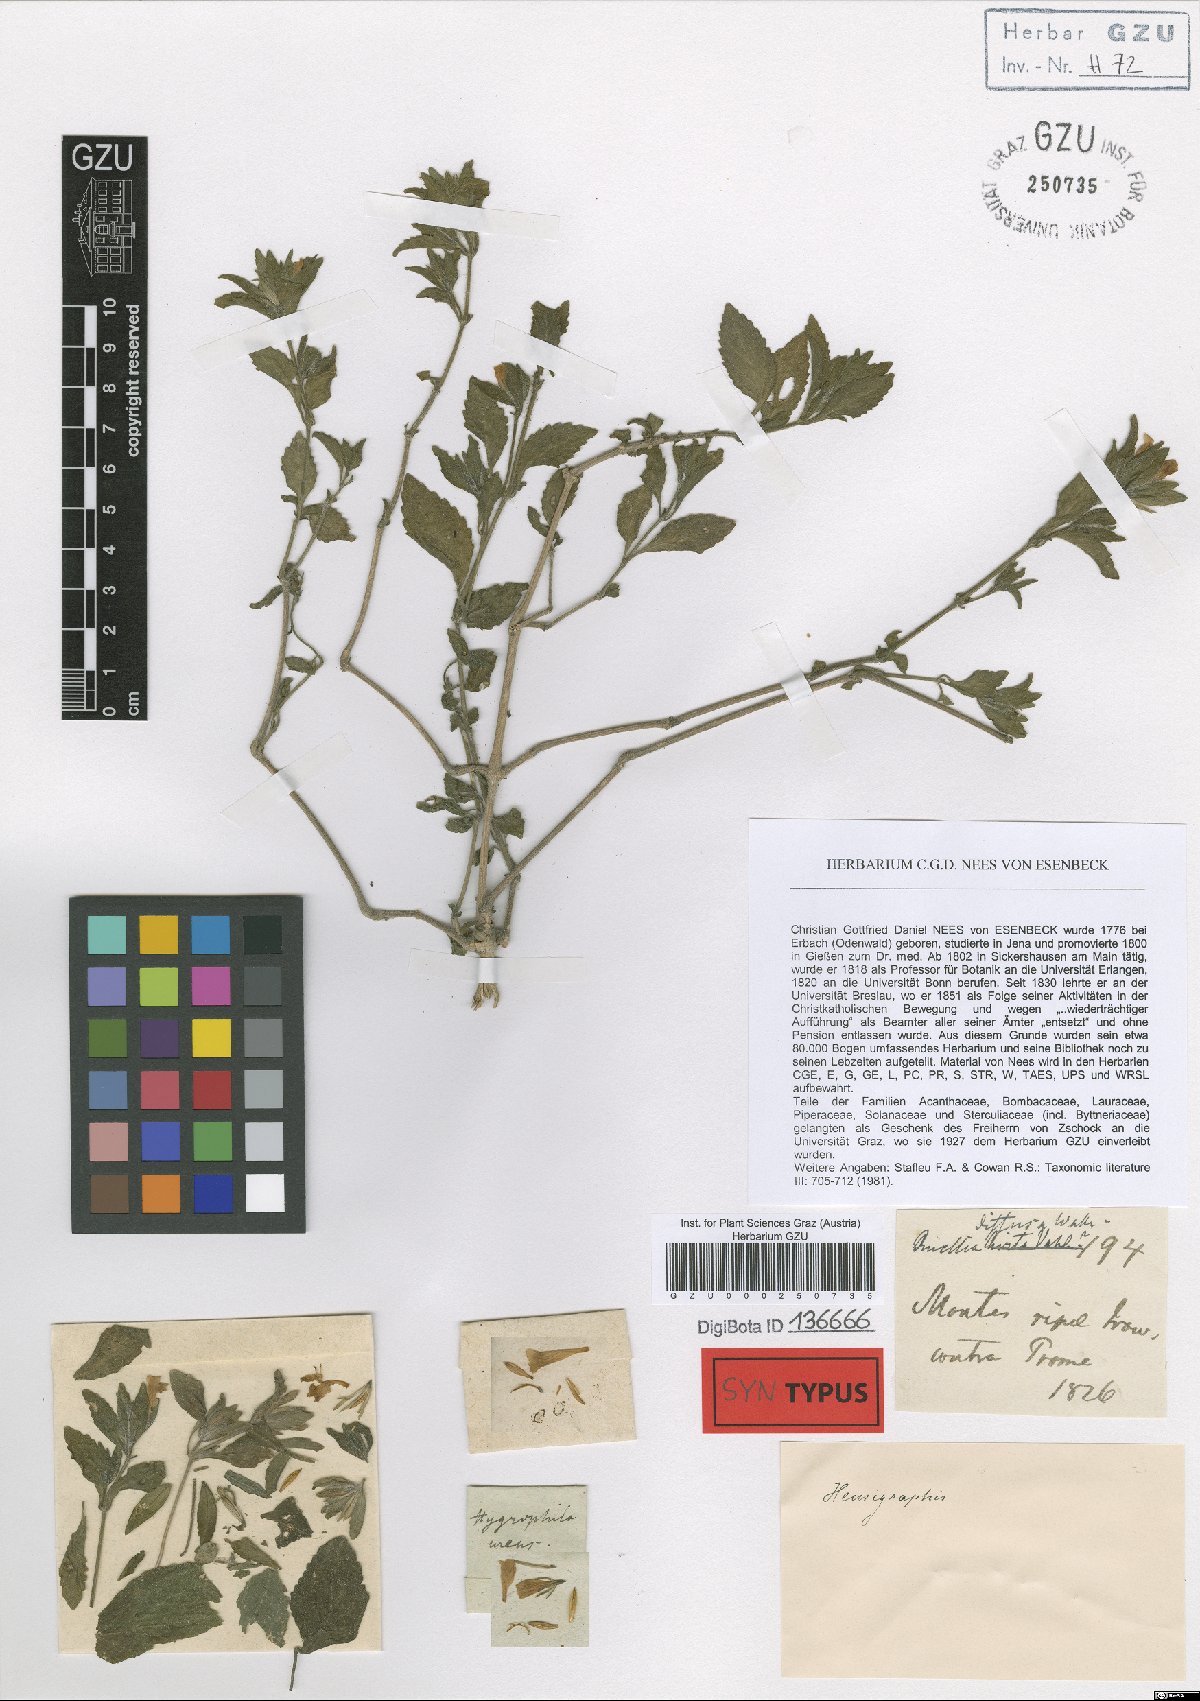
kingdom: Plantae
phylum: Tracheophyta
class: Magnoliopsida
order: Lamiales
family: Acanthaceae
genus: Strobilanthes
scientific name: Strobilanthes
